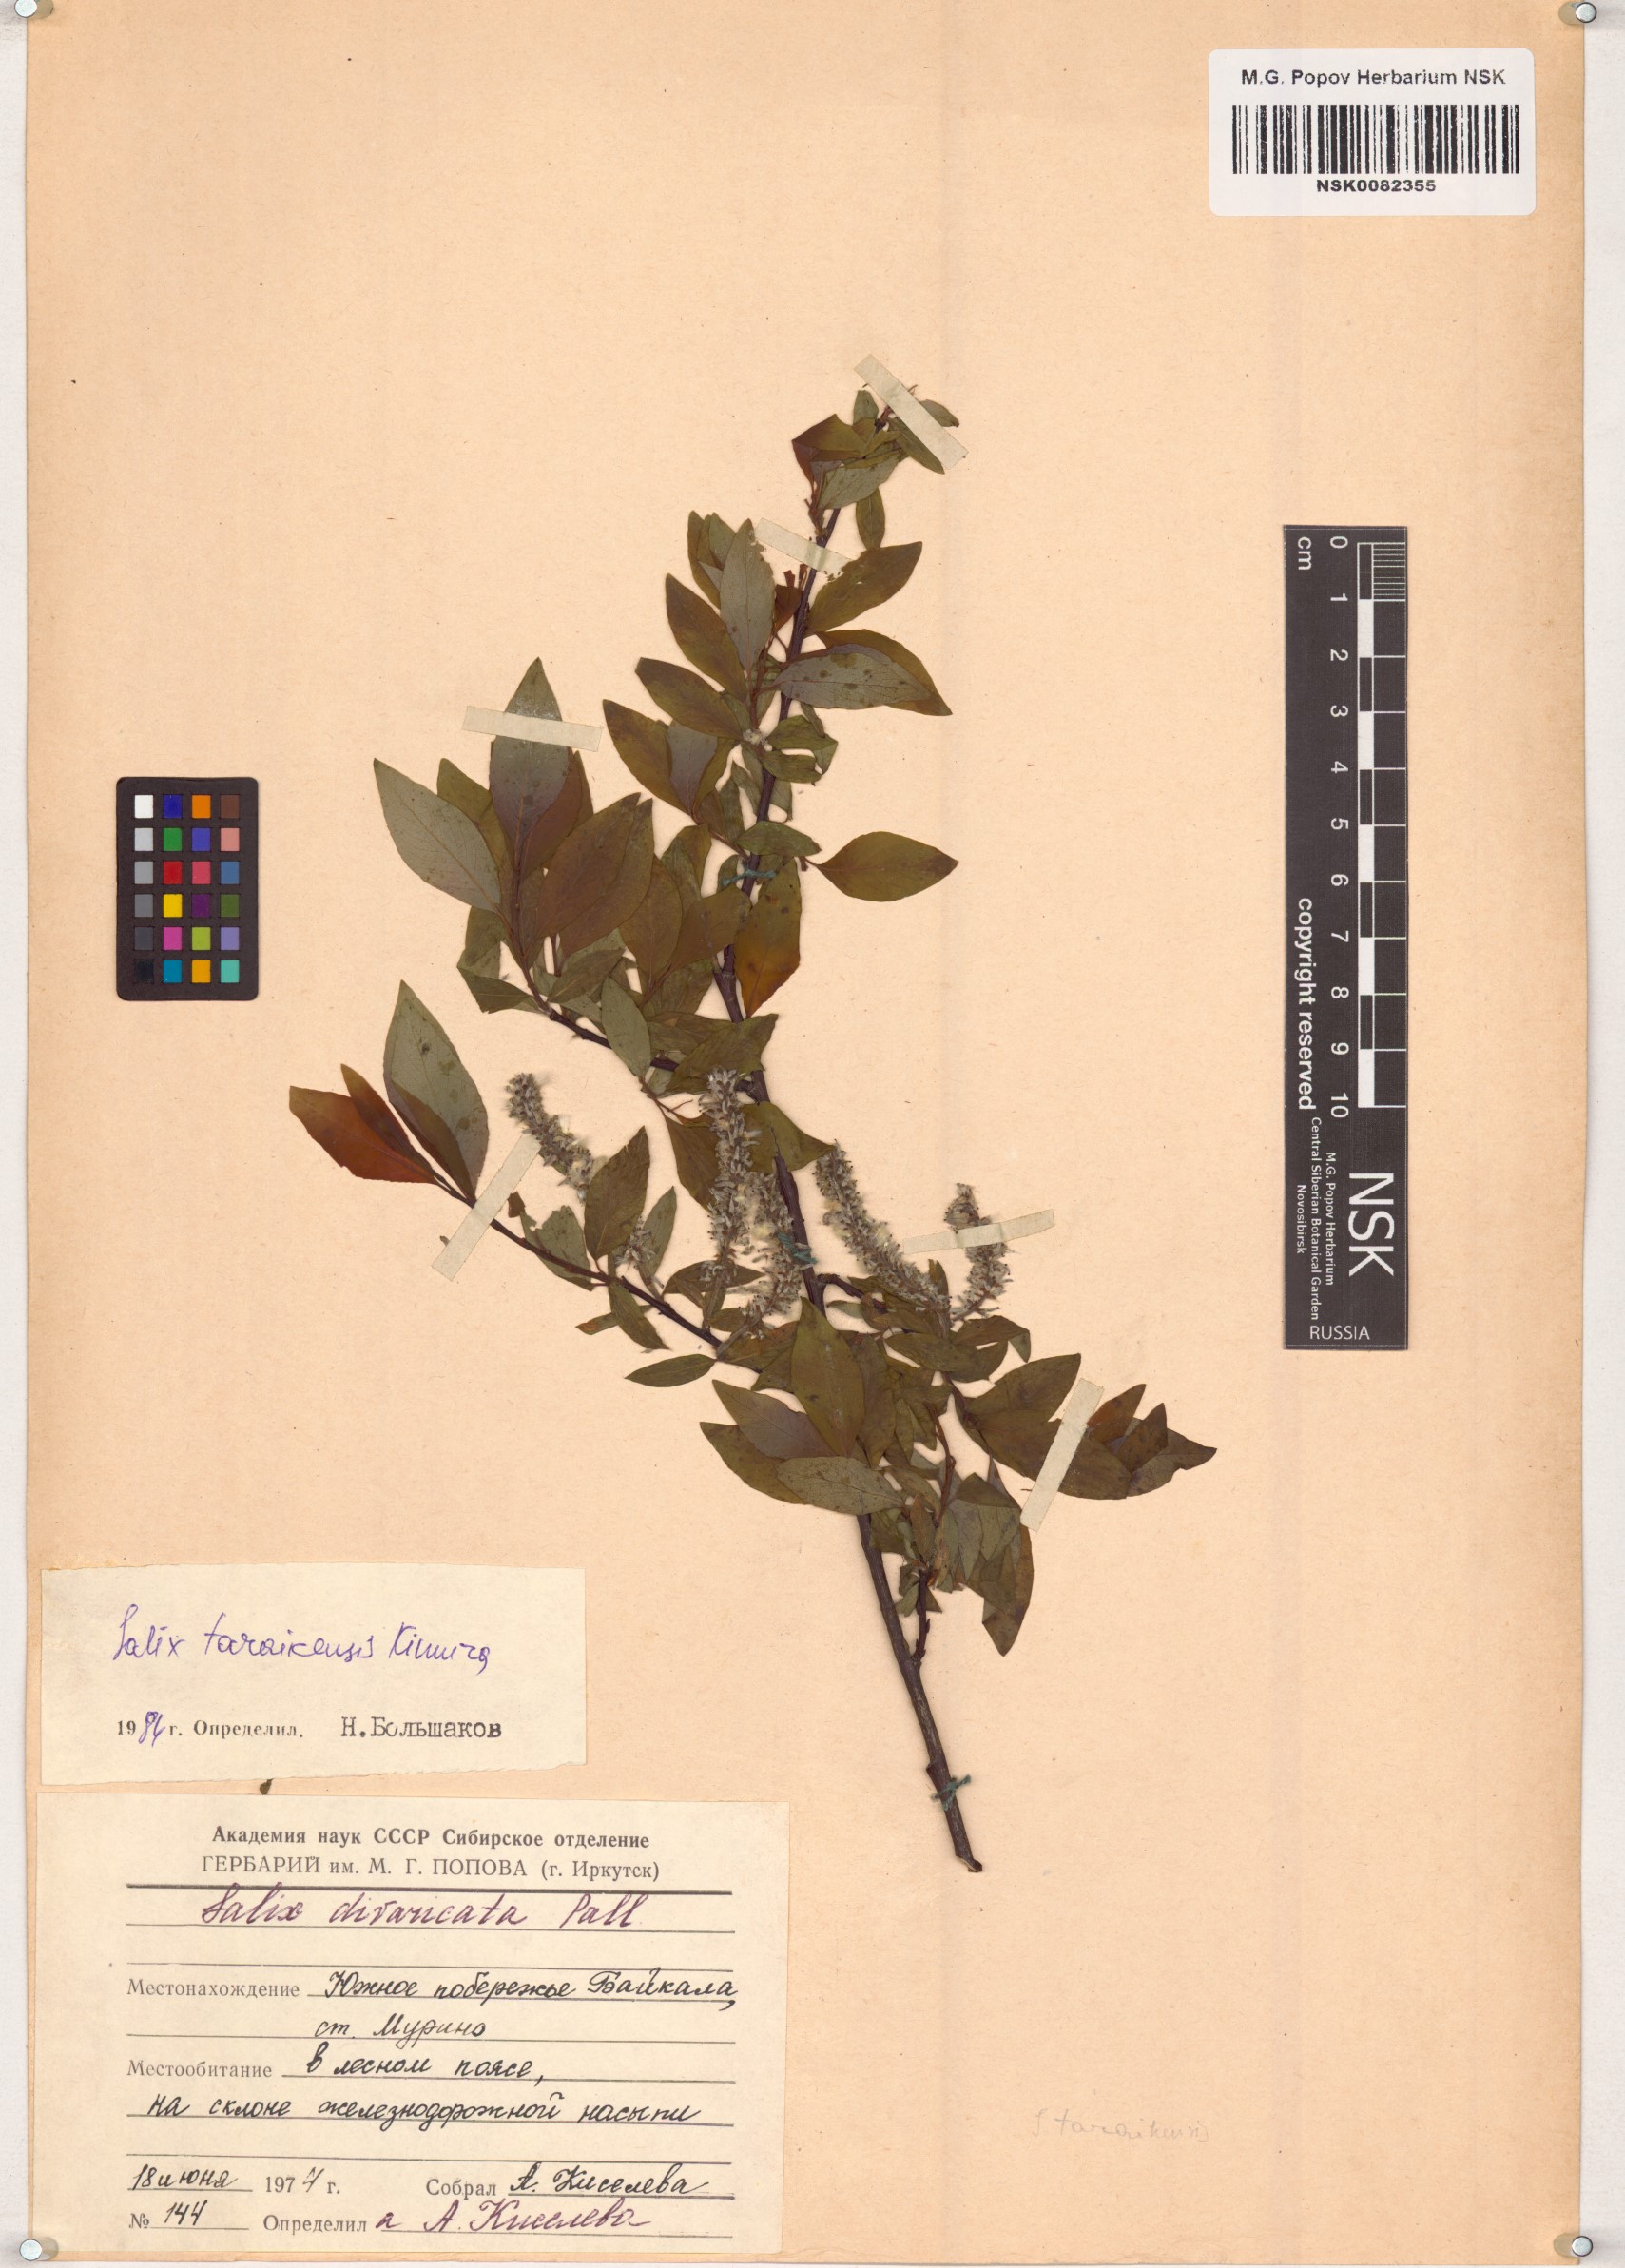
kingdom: Plantae
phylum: Tracheophyta
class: Magnoliopsida
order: Malpighiales
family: Salicaceae
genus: Salix
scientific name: Salix taraikensis
